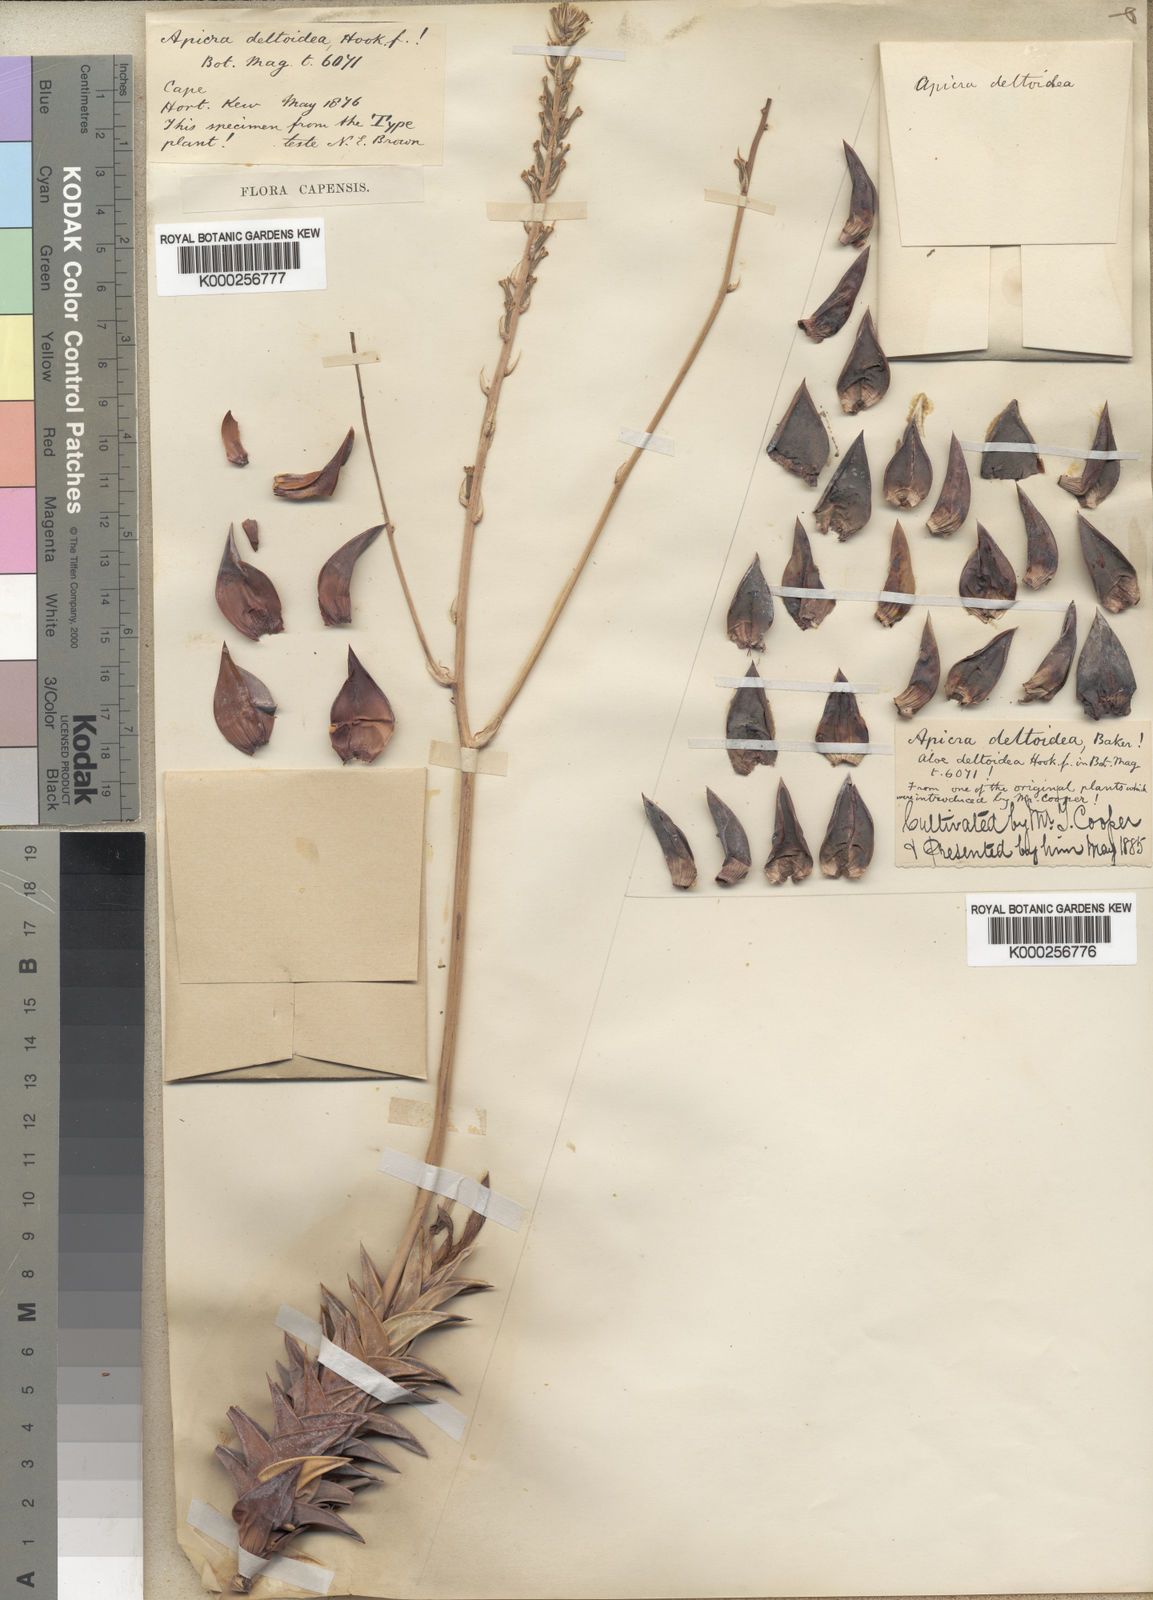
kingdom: Plantae
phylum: Tracheophyta
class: Liliopsida
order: Asparagales
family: Asphodelaceae
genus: Astroloba
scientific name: Astroloba congesta
